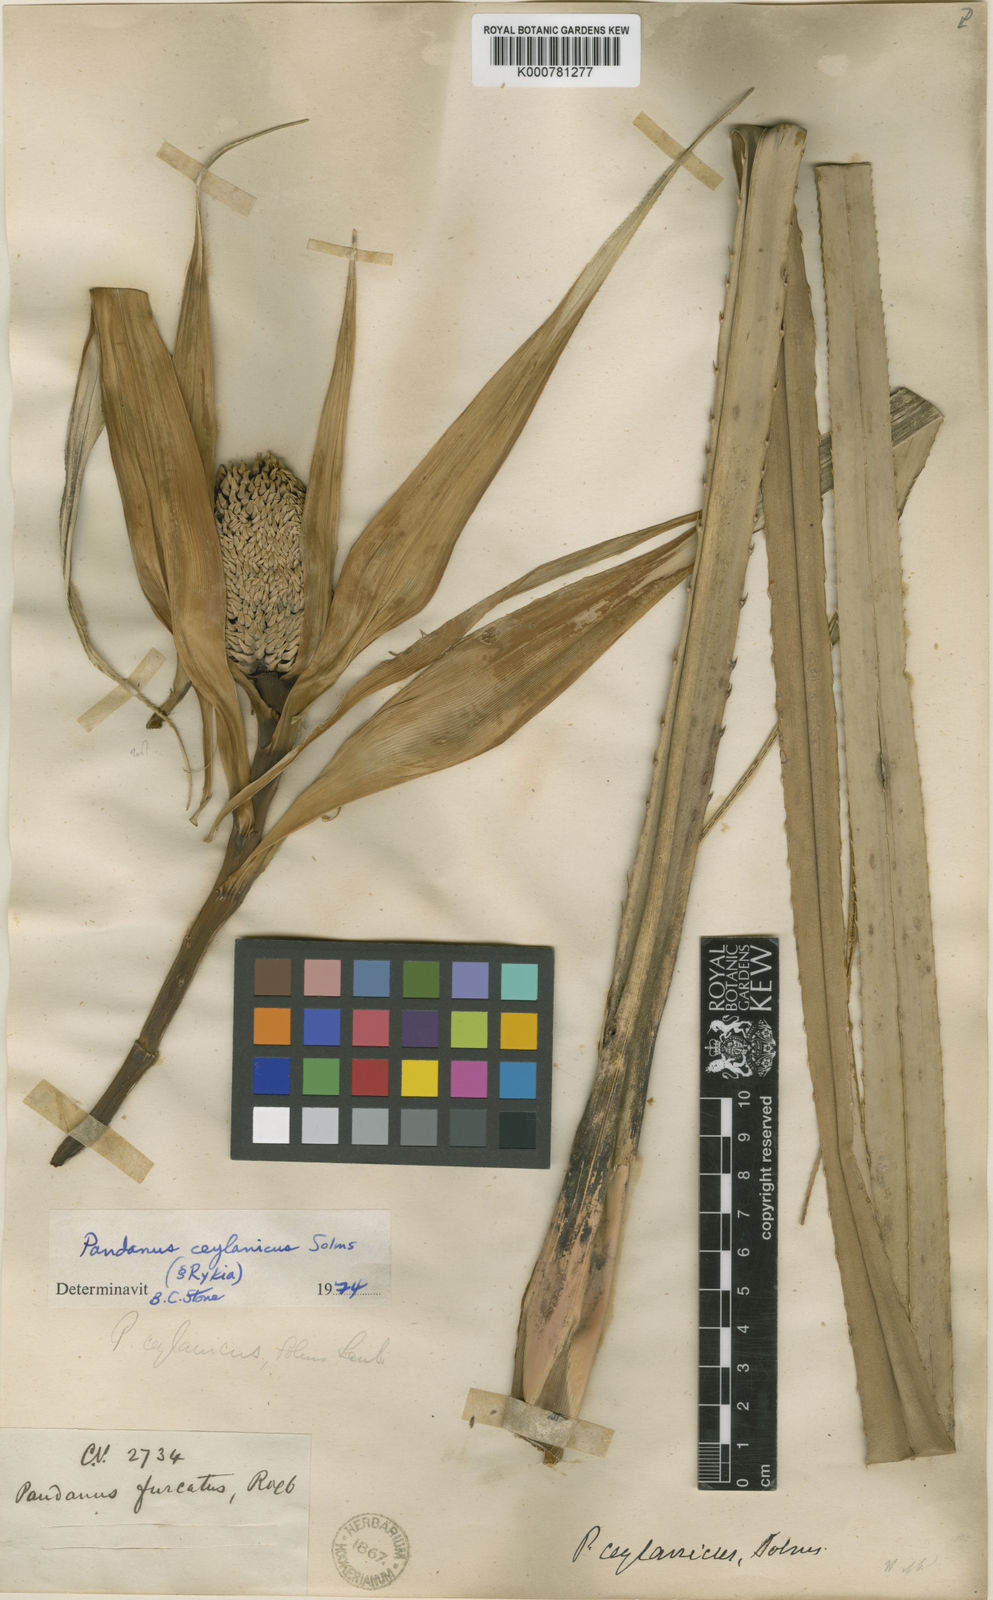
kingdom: Plantae
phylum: Tracheophyta
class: Liliopsida
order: Pandanales
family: Pandanaceae
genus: Pandanus
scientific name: Pandanus ceylanicus
